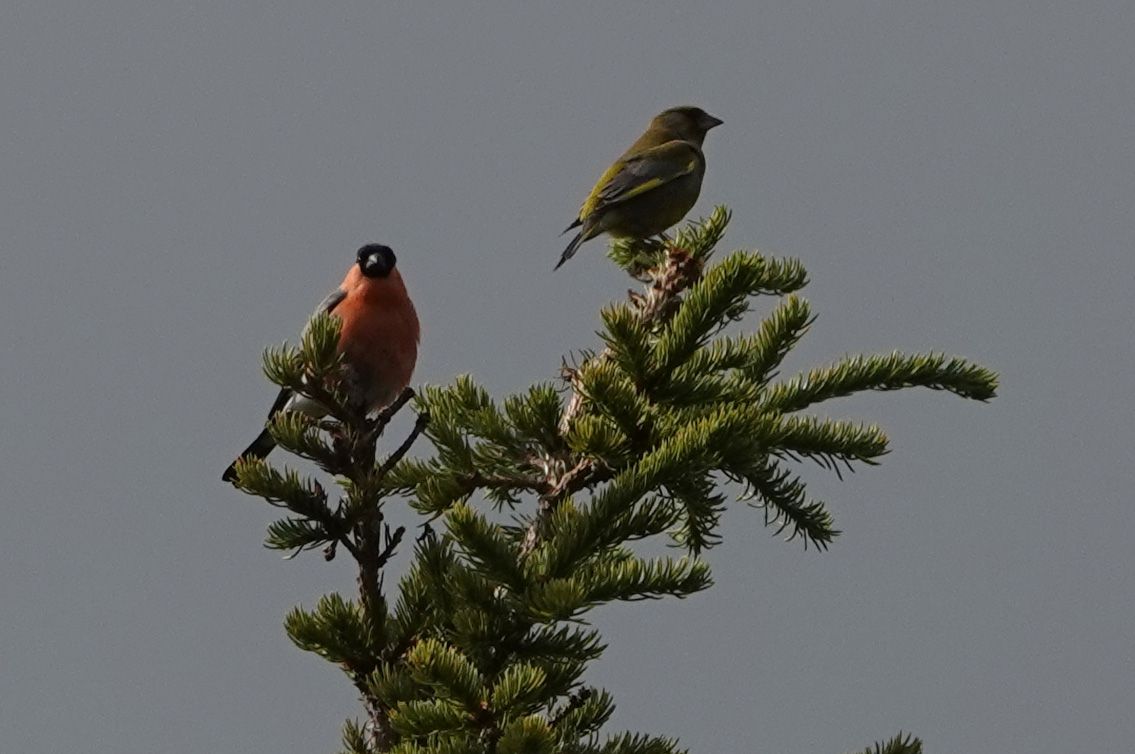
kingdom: Animalia
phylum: Chordata
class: Aves
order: Passeriformes
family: Fringillidae
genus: Pyrrhula
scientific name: Pyrrhula pyrrhula
